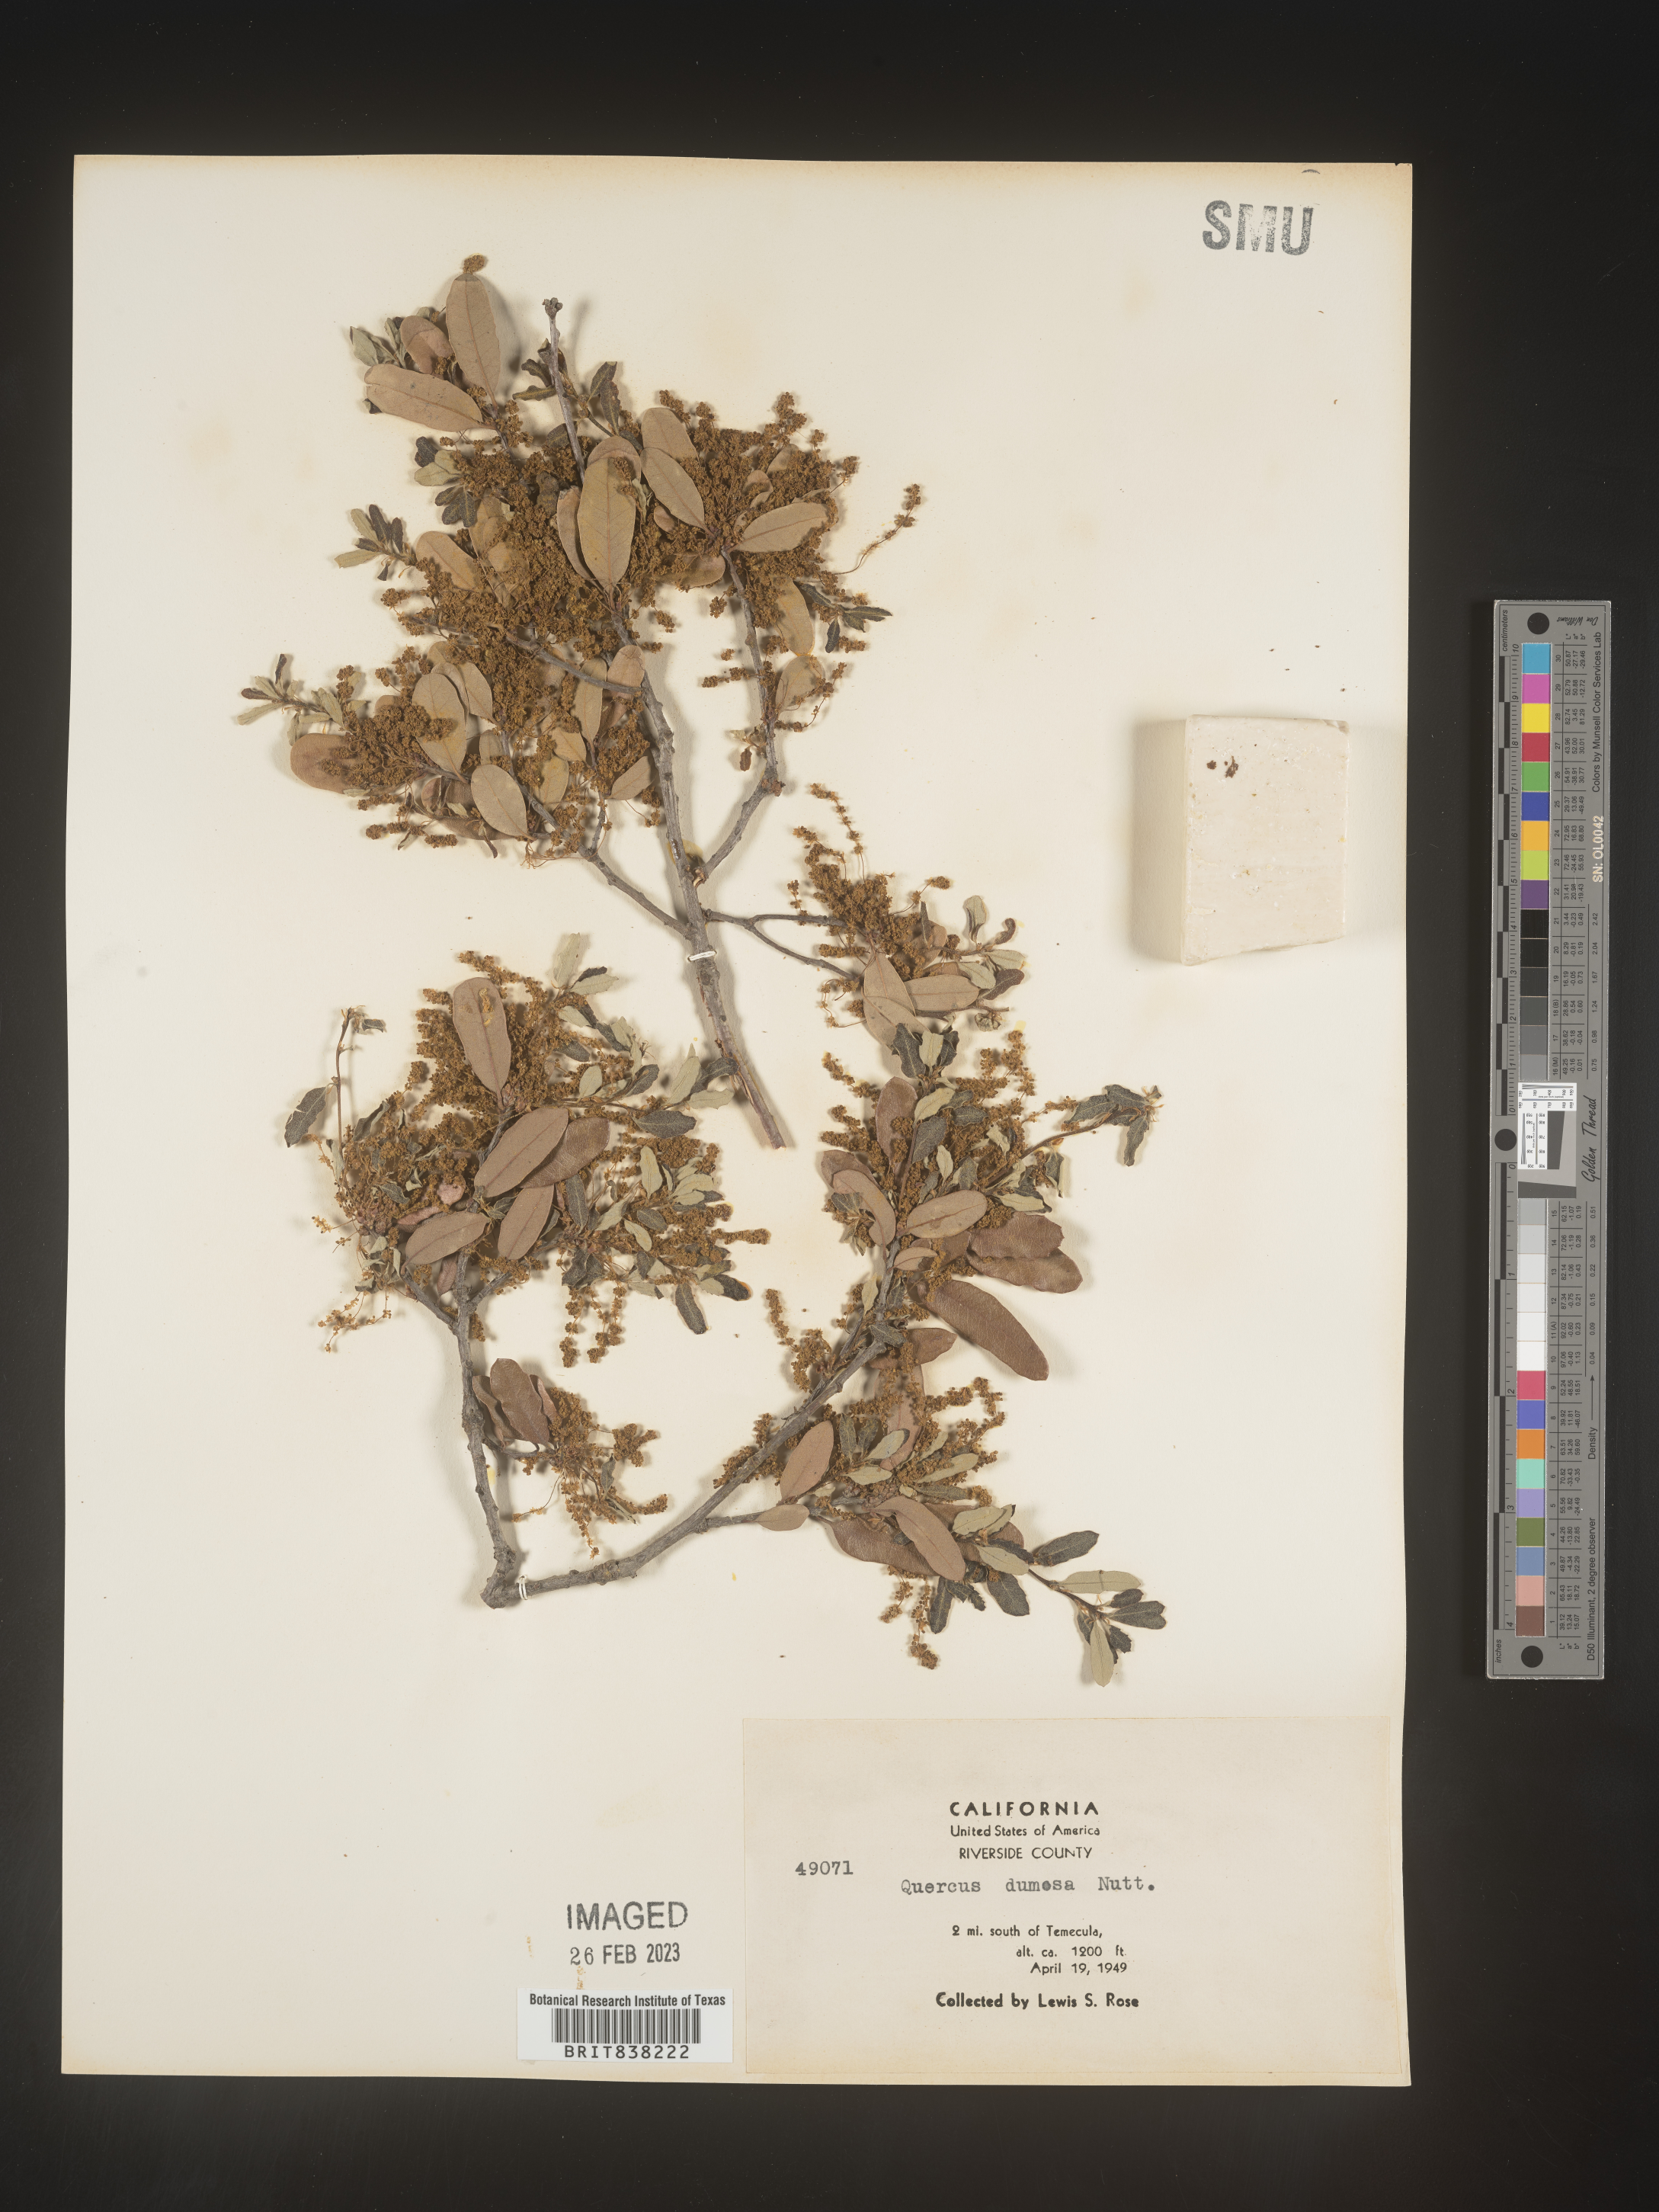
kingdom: Plantae
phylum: Tracheophyta
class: Magnoliopsida
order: Fagales
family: Fagaceae
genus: Quercus
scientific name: Quercus
